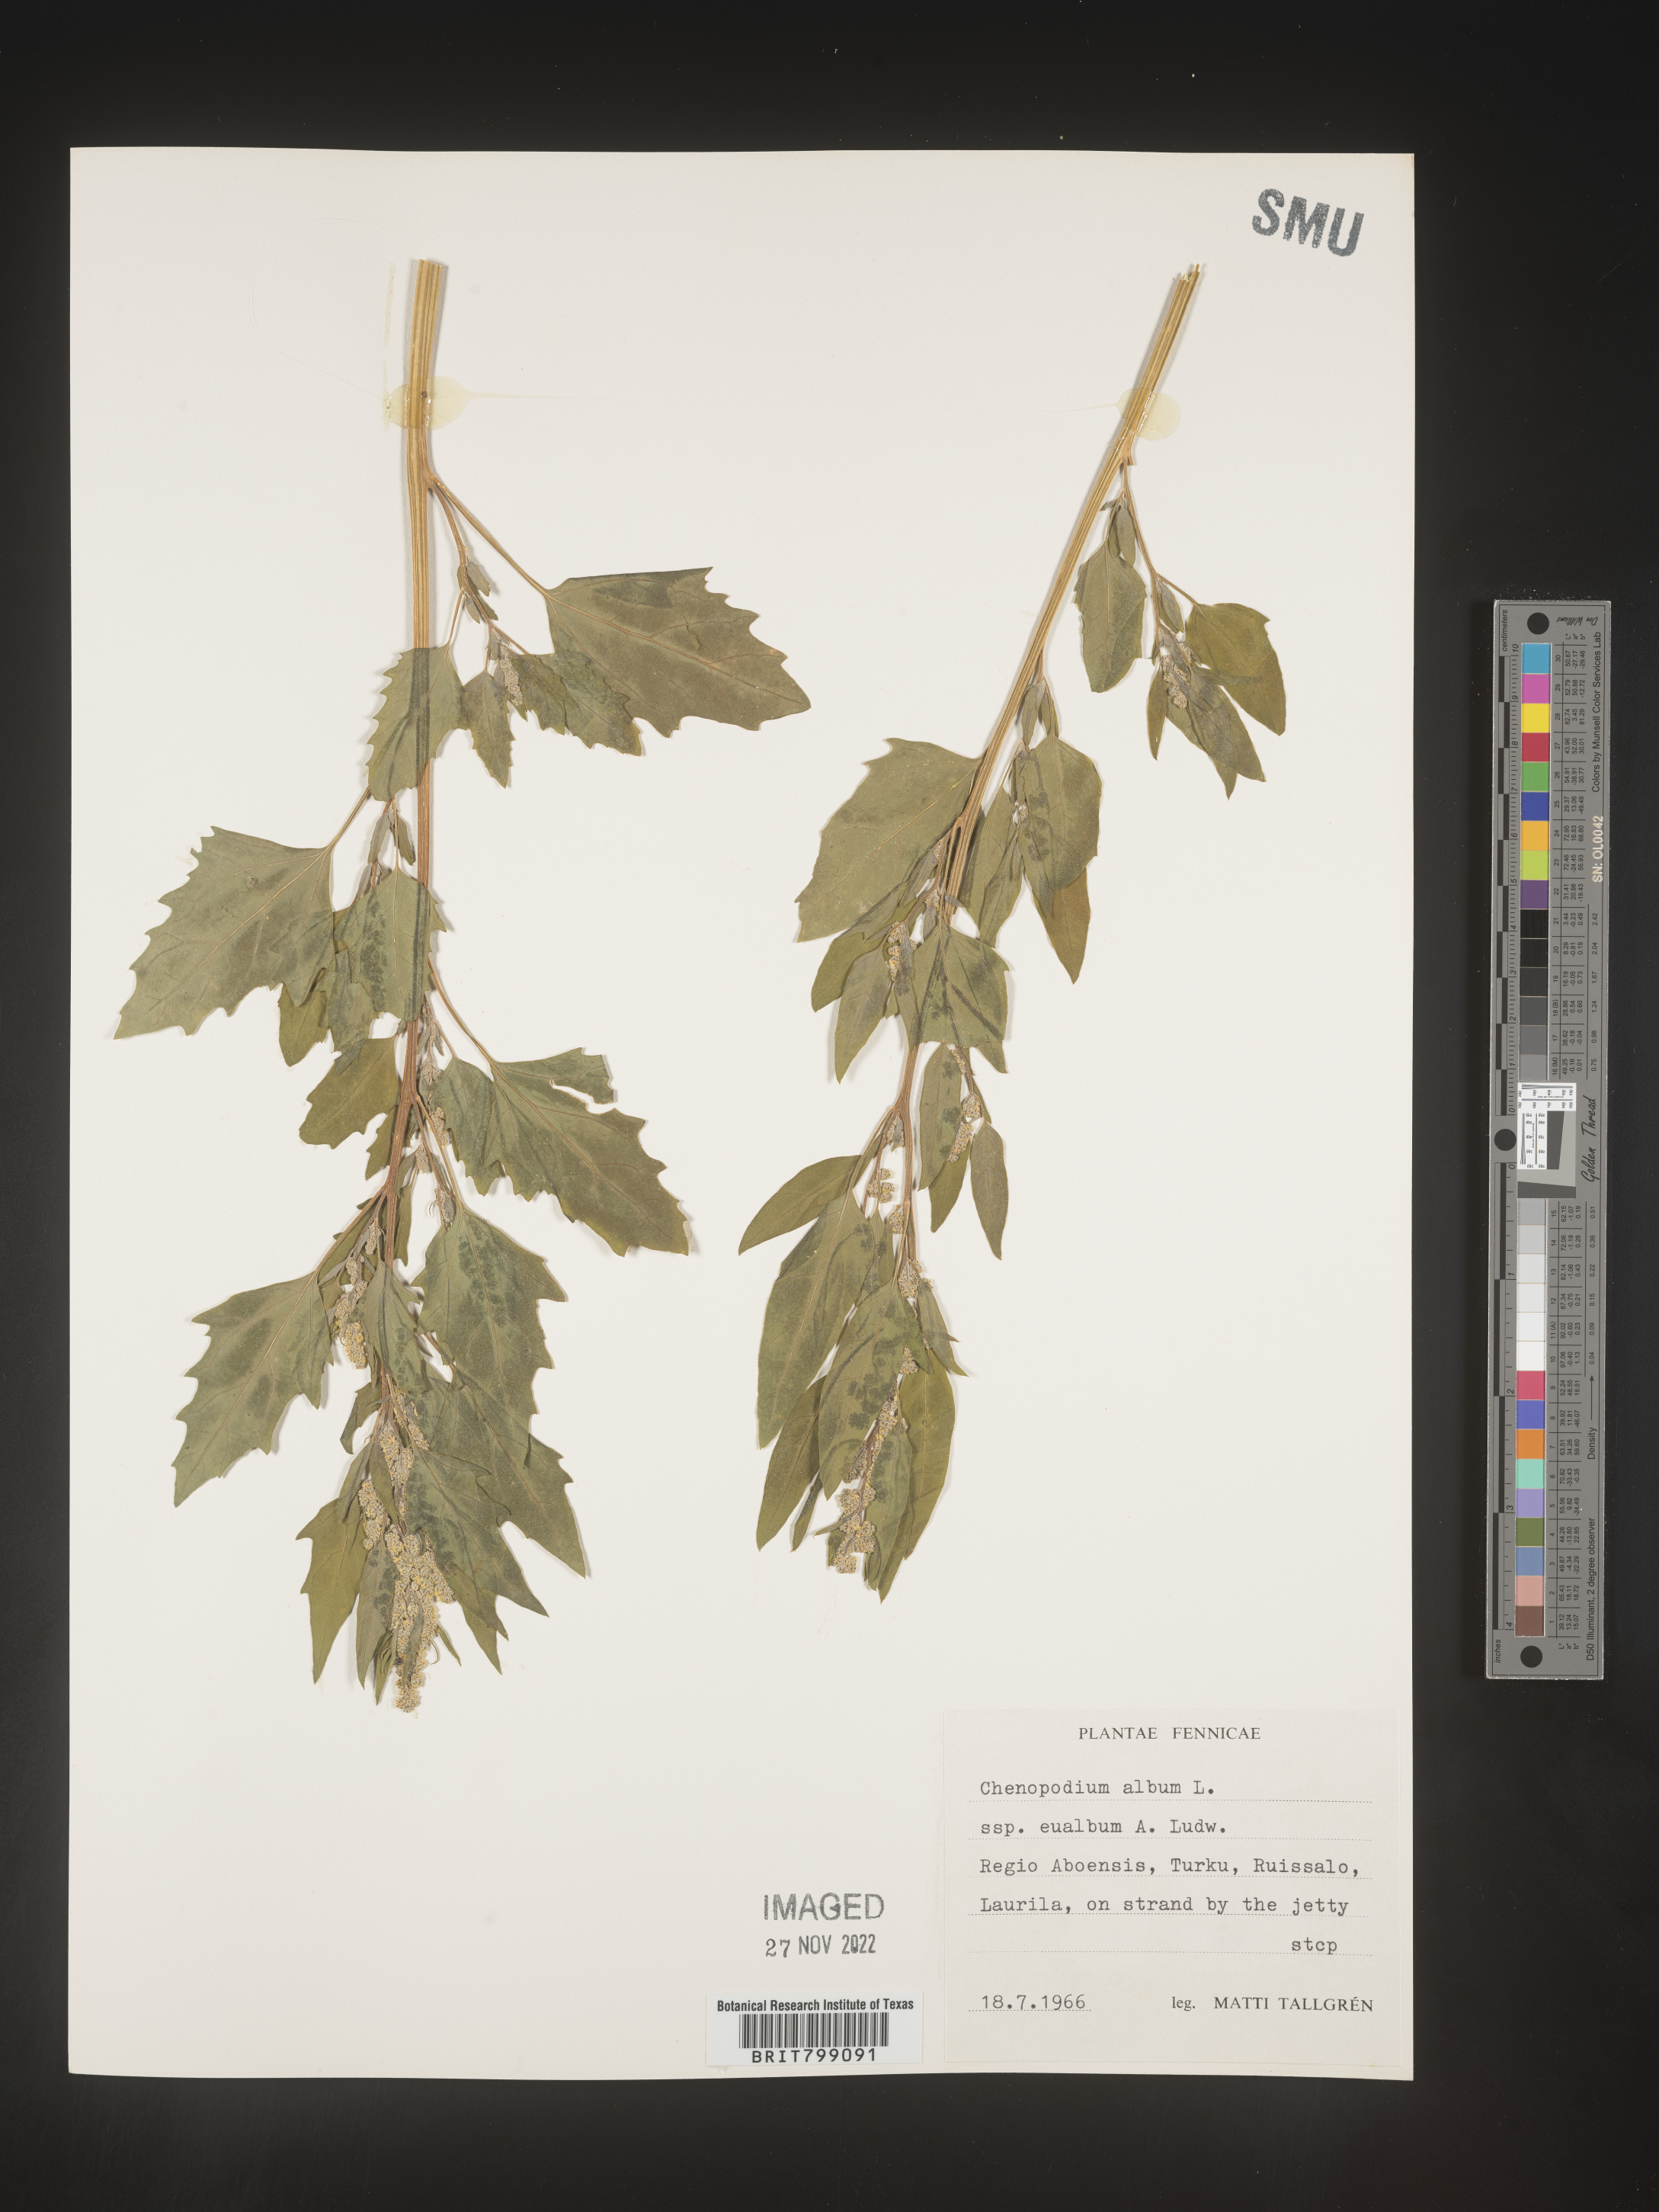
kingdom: Plantae
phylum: Tracheophyta
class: Magnoliopsida
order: Caryophyllales
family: Amaranthaceae
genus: Chenopodium
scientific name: Chenopodium
